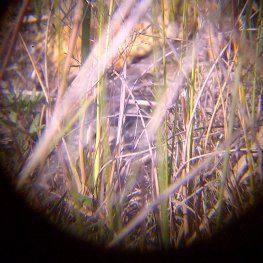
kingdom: Animalia
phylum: Arthropoda
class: Insecta
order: Lepidoptera
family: Nymphalidae
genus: Euptoieta
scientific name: Euptoieta claudia
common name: Variegated Fritillary
